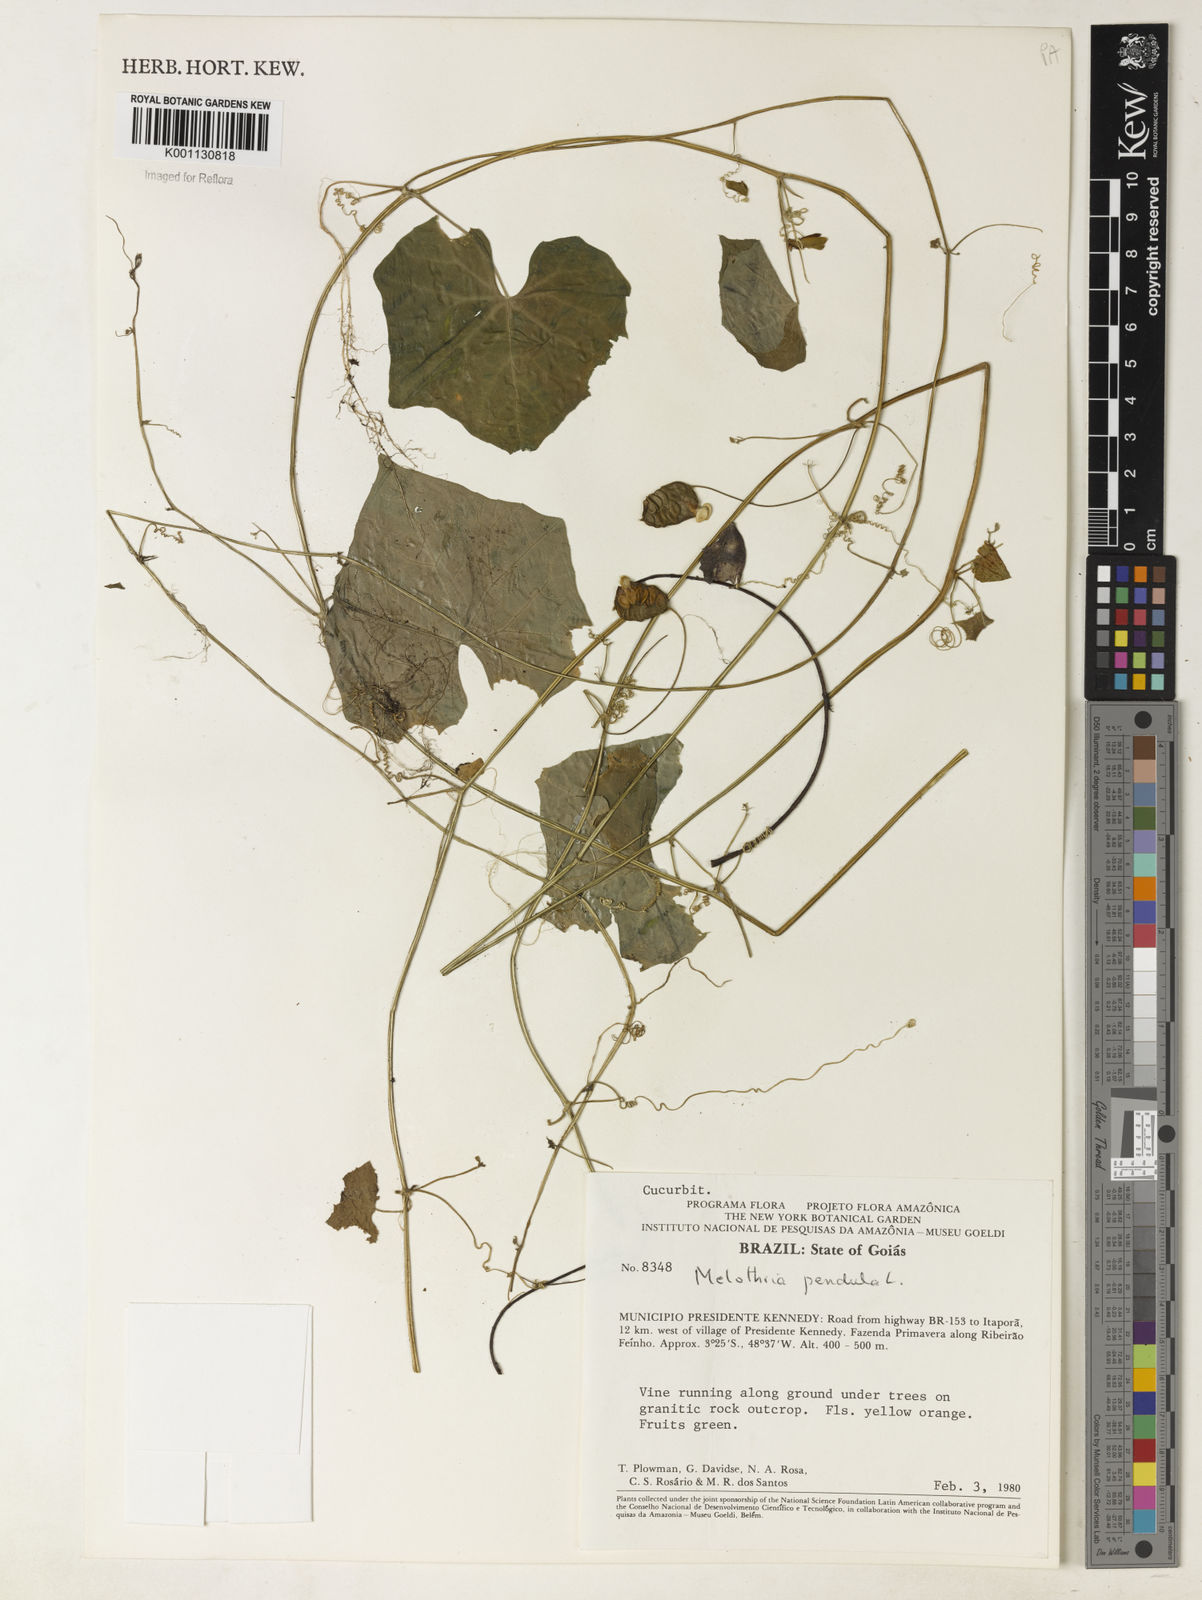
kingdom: Plantae
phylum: Tracheophyta
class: Magnoliopsida
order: Cucurbitales
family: Cucurbitaceae
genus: Melothria
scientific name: Melothria pendula
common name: Creeping-cucumber
